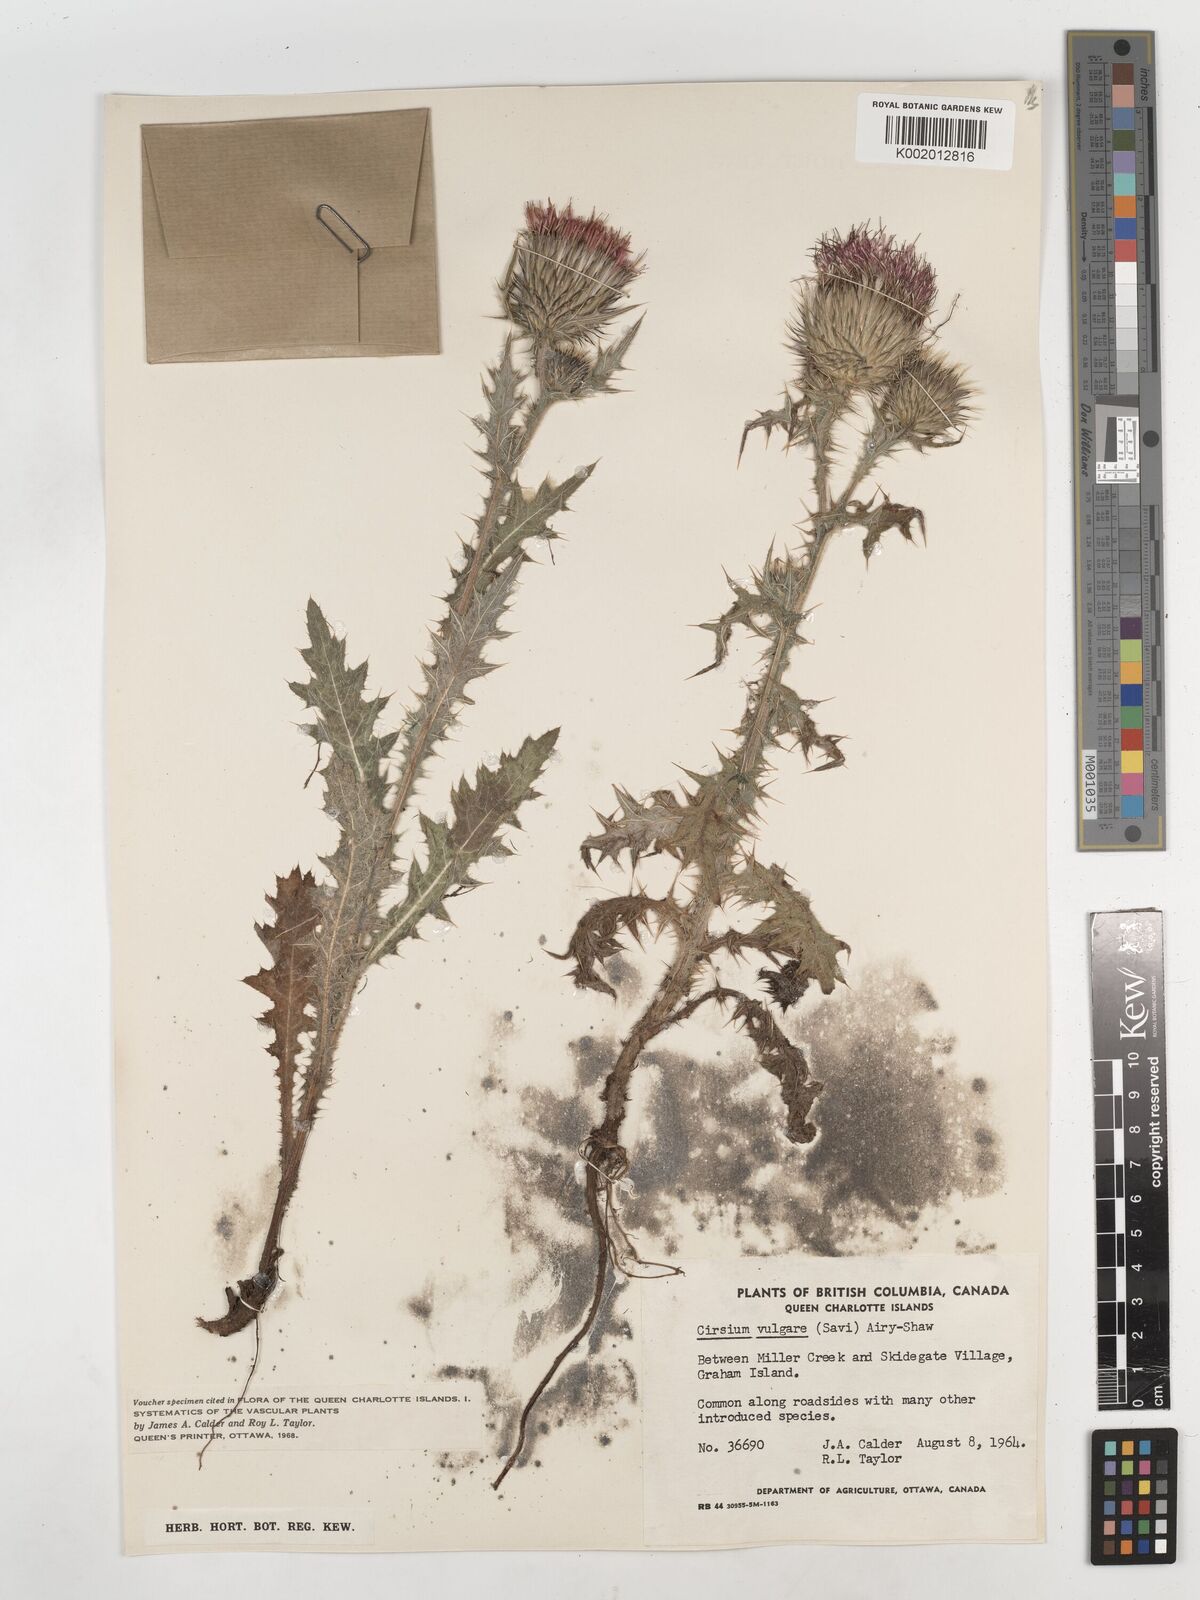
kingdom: Plantae
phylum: Tracheophyta
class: Magnoliopsida
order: Asterales
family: Asteraceae
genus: Cirsium
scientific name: Cirsium vulgare
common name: Bull thistle
